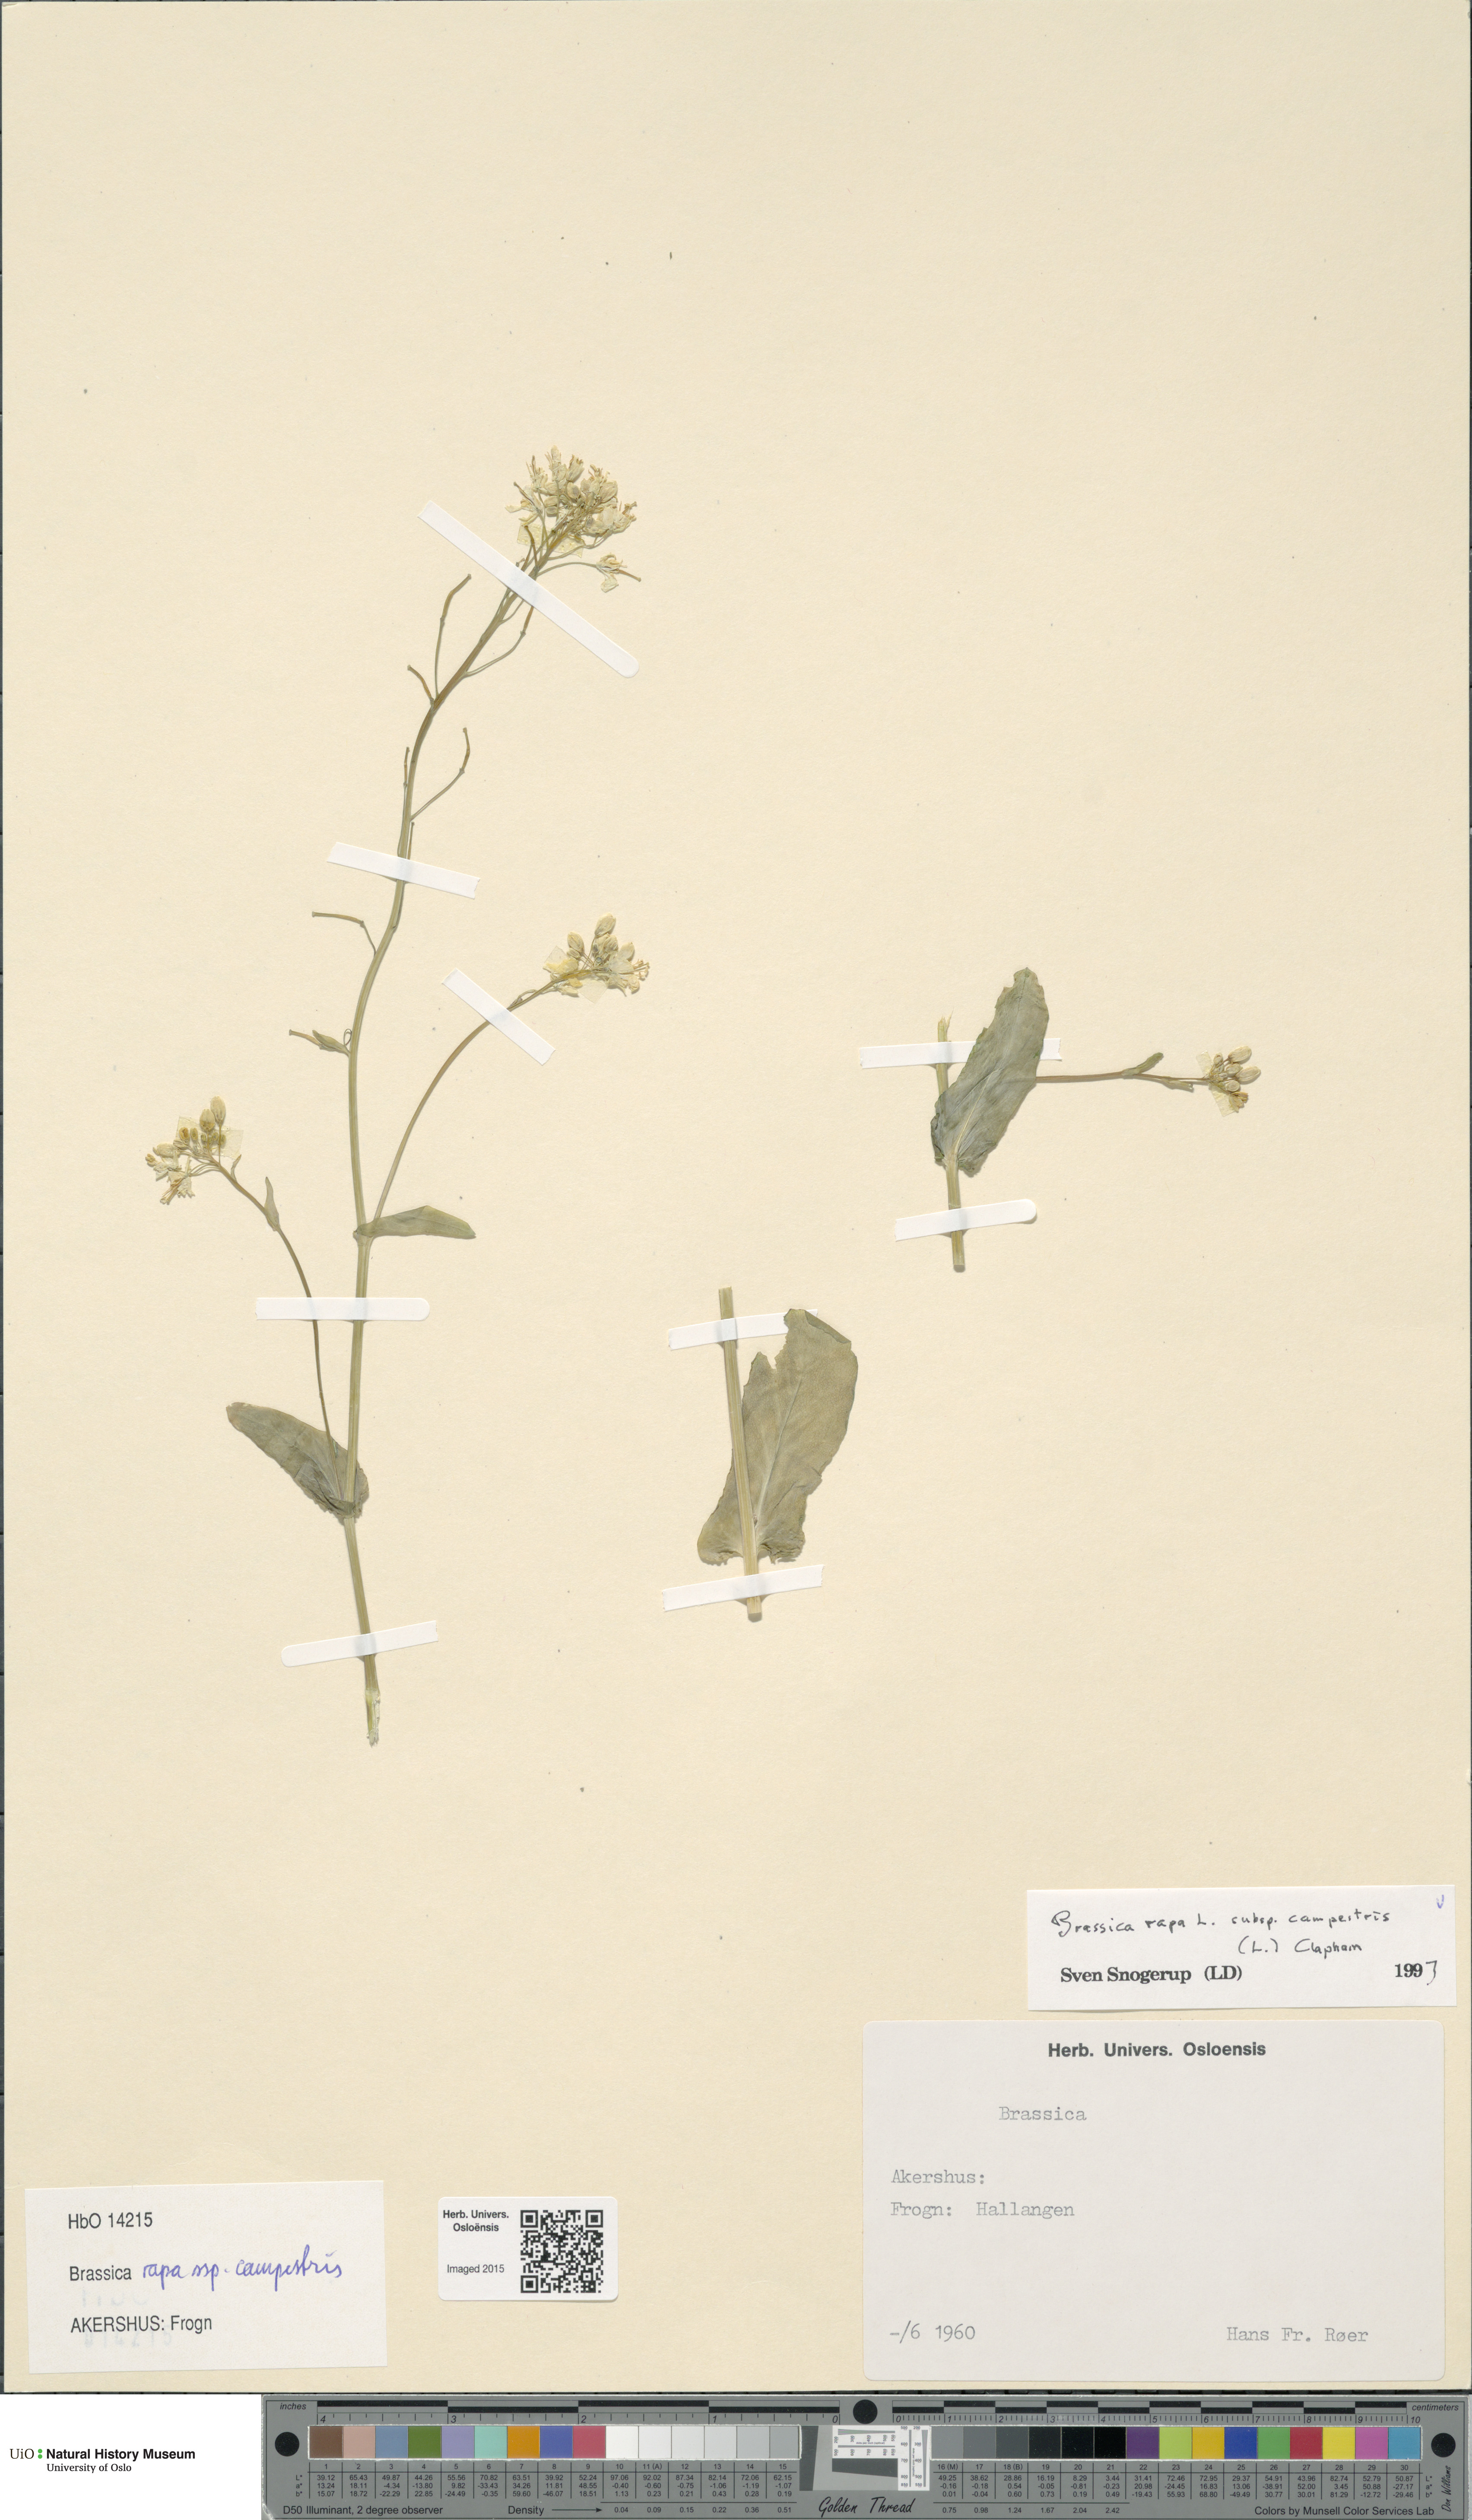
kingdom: Plantae
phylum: Tracheophyta
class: Magnoliopsida
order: Brassicales
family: Brassicaceae
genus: Brassica
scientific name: Brassica rapa
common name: Field mustard
